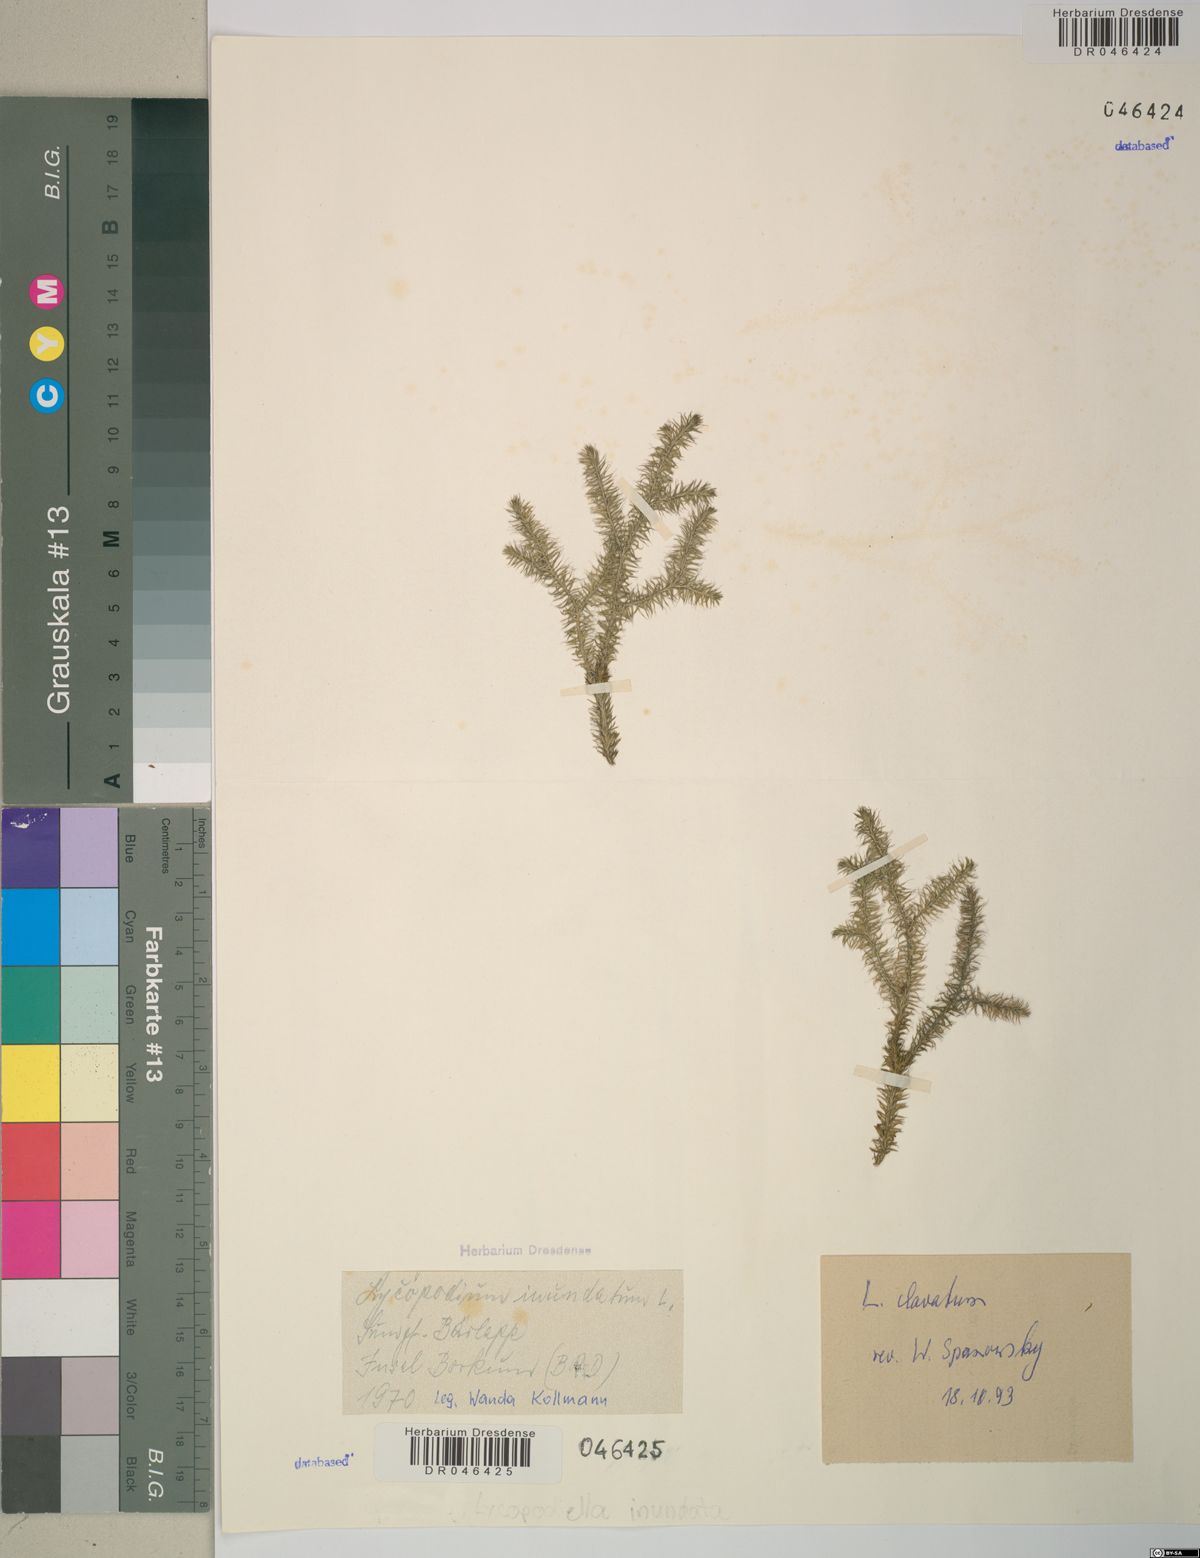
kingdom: Plantae
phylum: Tracheophyta
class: Lycopodiopsida
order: Lycopodiales
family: Lycopodiaceae
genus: Lycopodium
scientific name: Lycopodium clavatum
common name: Stag's-horn clubmoss
